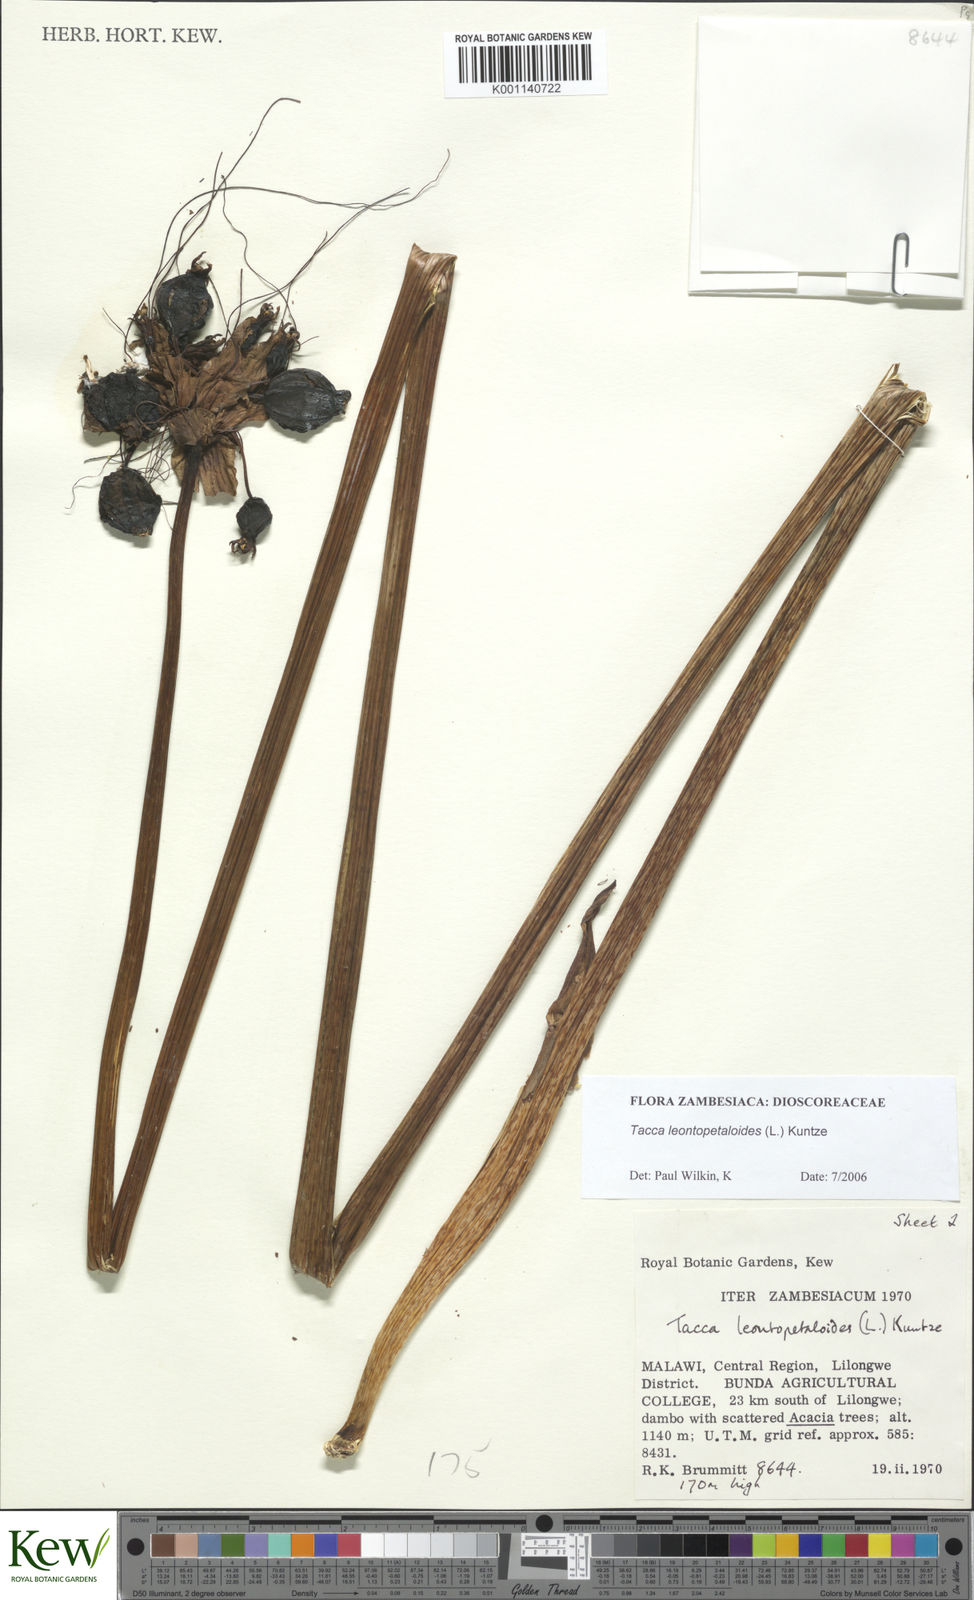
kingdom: Plantae
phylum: Tracheophyta
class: Liliopsida
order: Dioscoreales
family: Dioscoreaceae
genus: Tacca
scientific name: Tacca leontopetaloides
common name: Arrowroot
